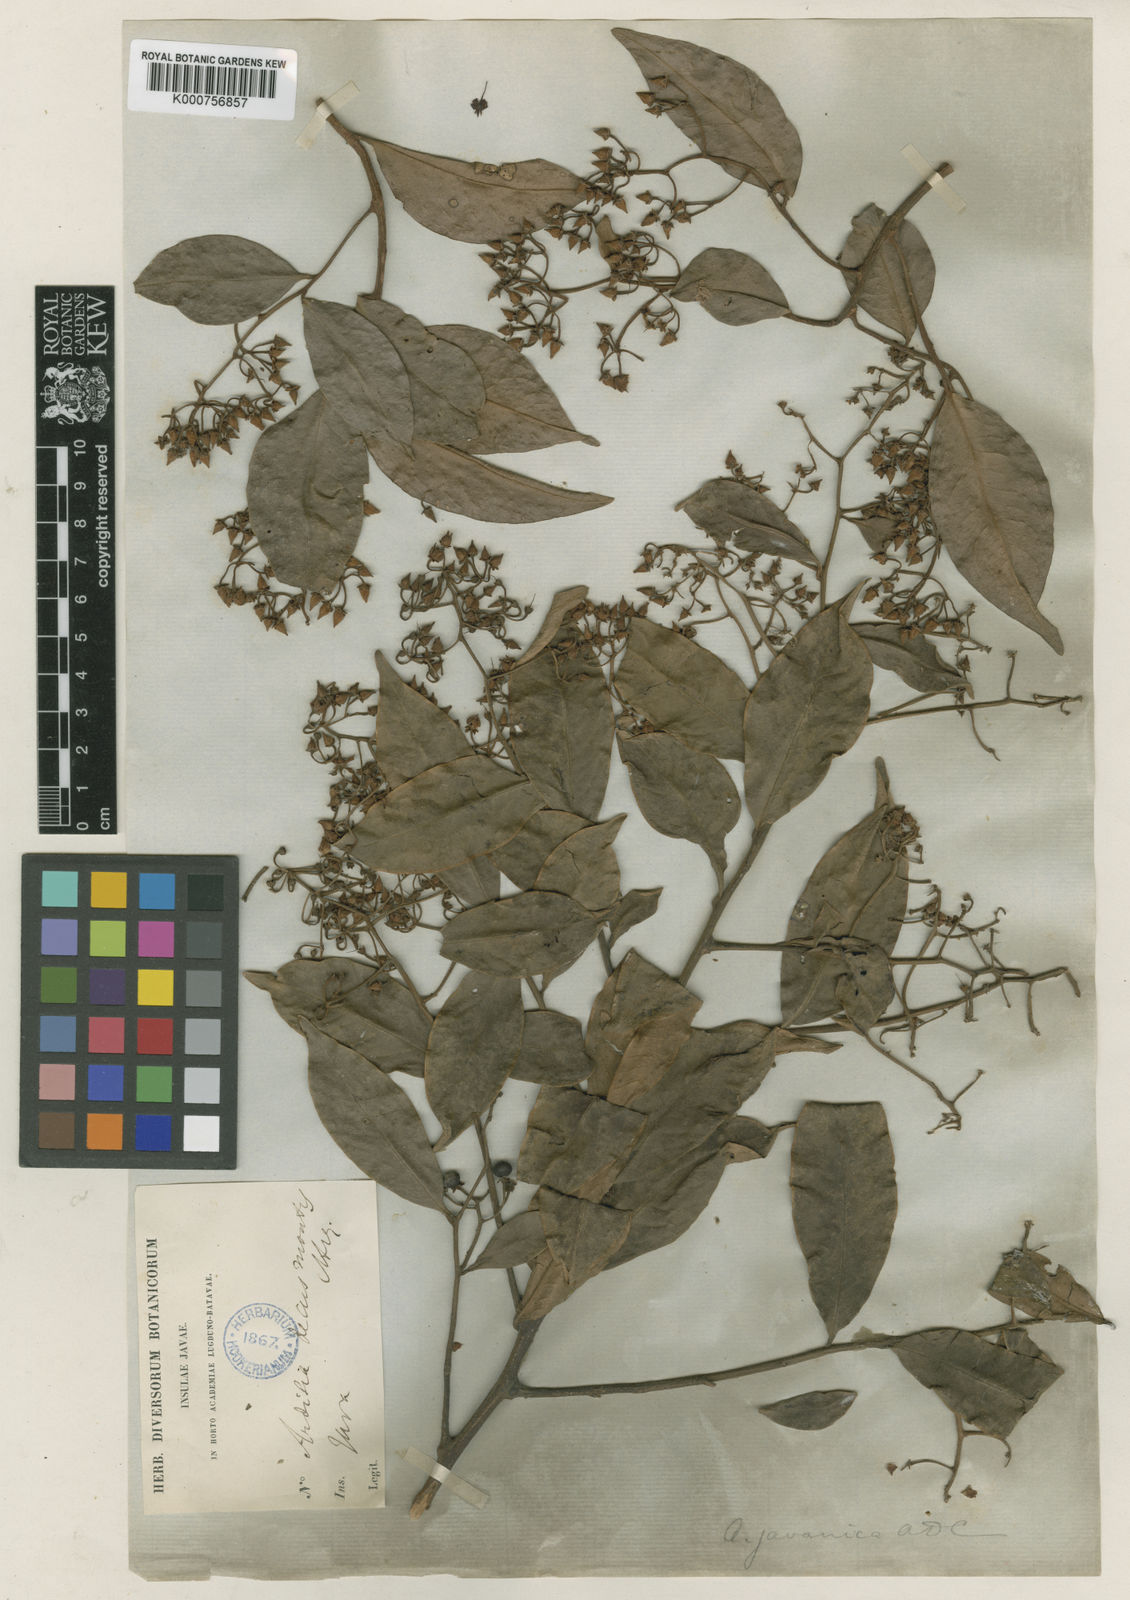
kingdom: Plantae
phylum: Tracheophyta
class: Magnoliopsida
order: Ericales
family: Primulaceae
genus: Ardisia
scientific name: Ardisia javanica
